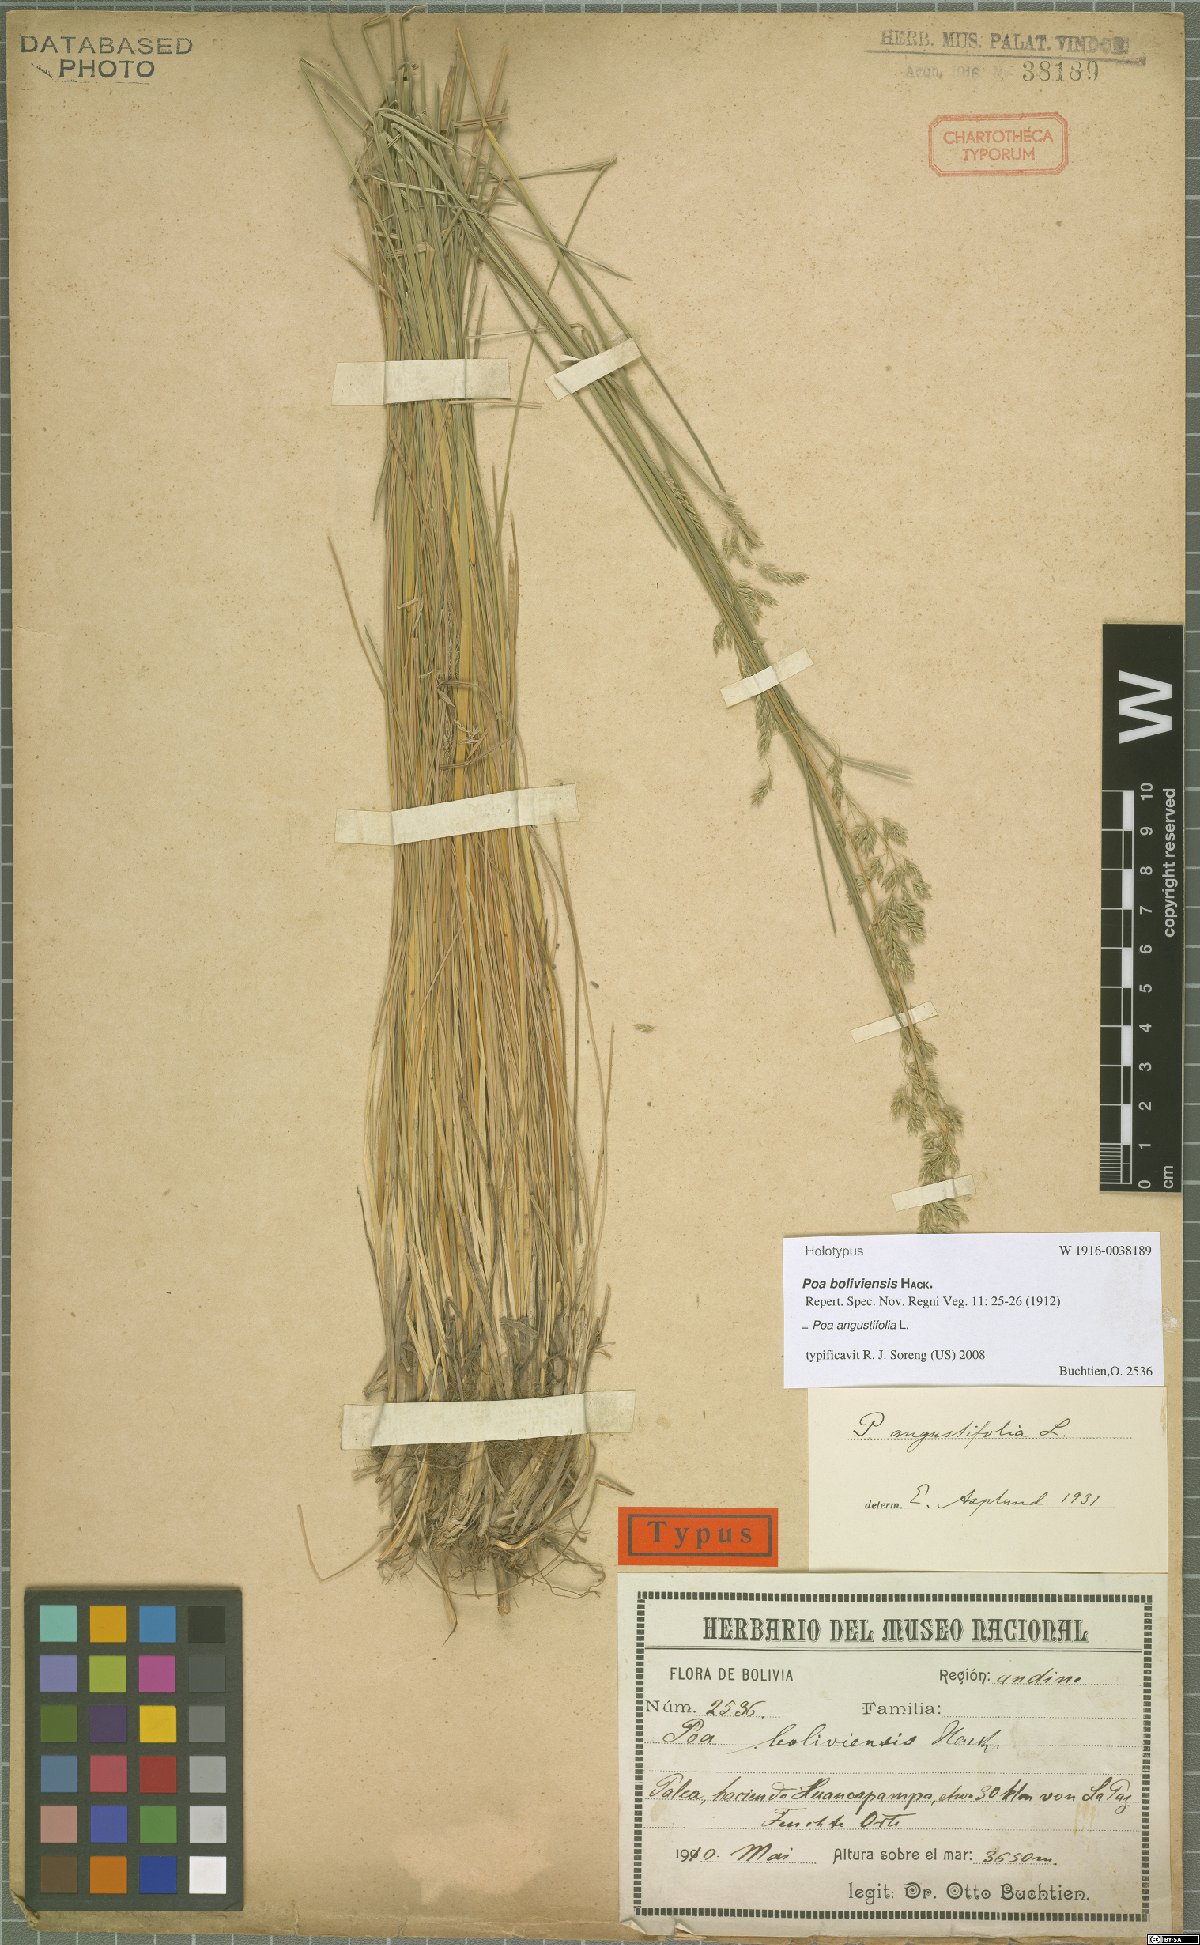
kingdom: Plantae
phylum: Tracheophyta
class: Liliopsida
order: Poales
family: Poaceae
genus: Poa
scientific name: Poa angustifolia
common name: Narrow-leaved meadow-grass
